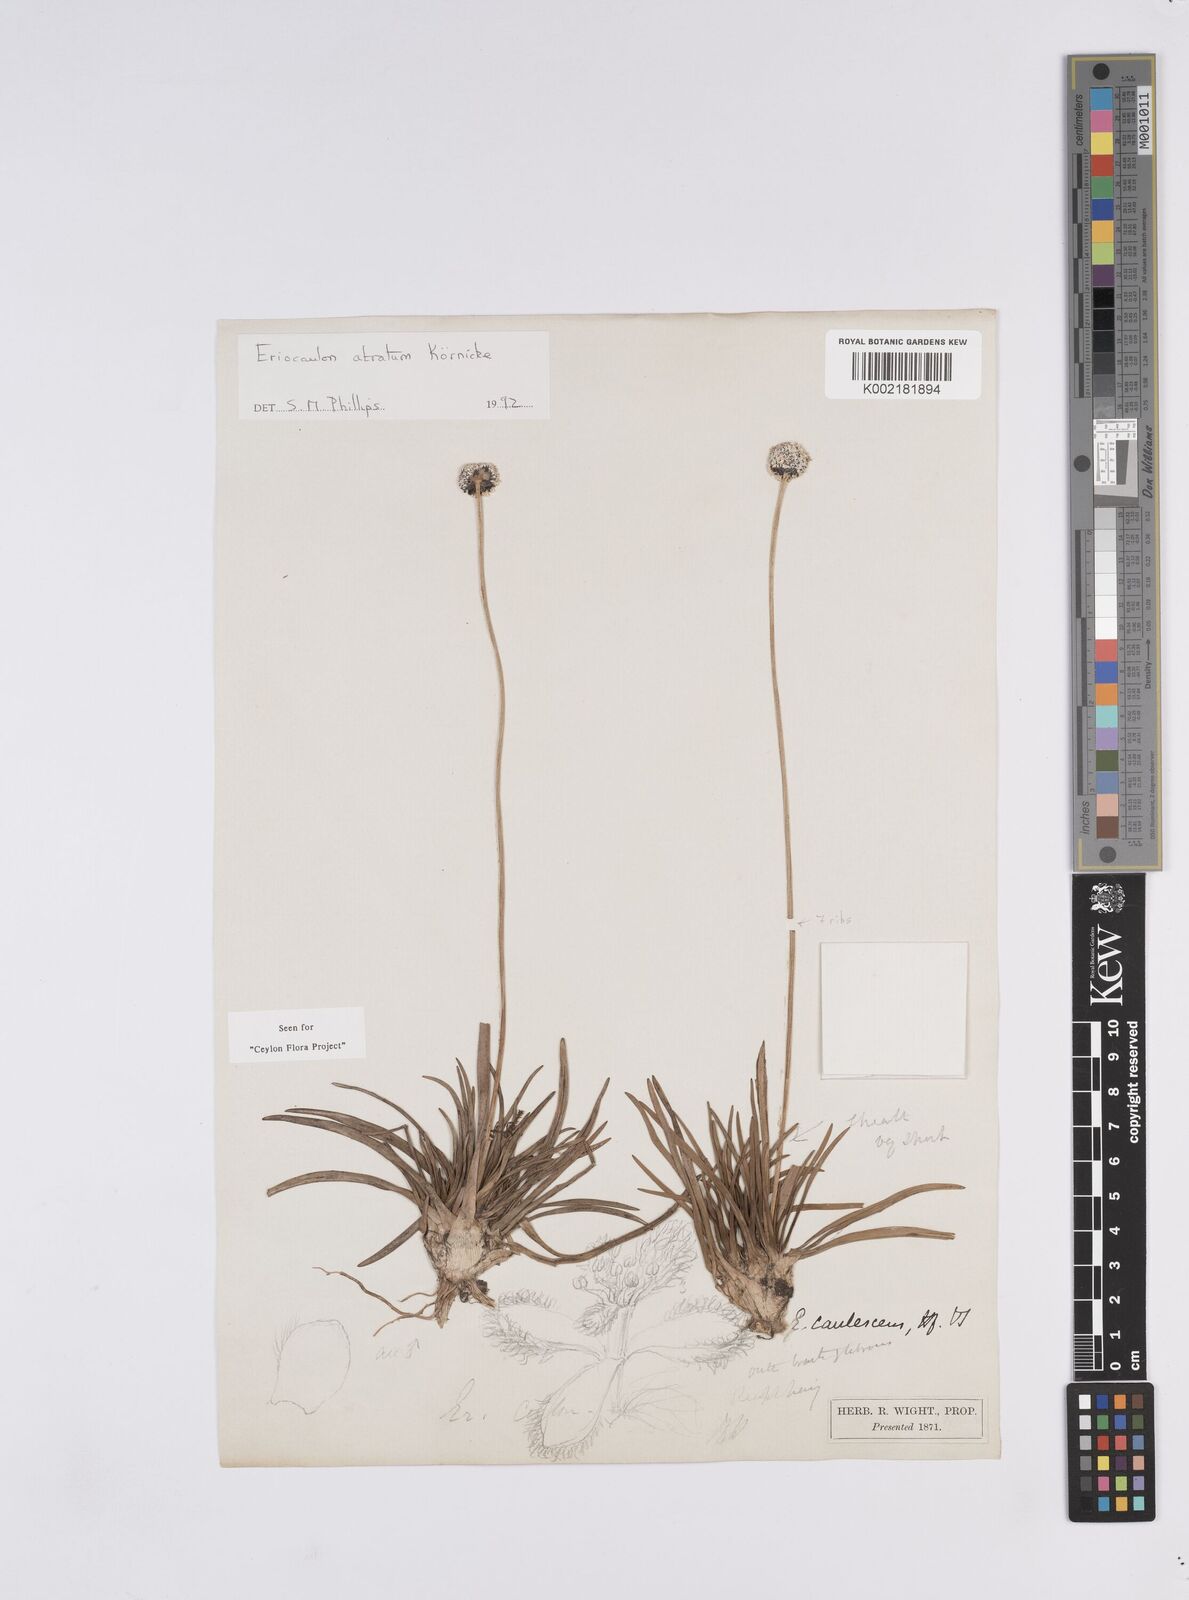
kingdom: Plantae
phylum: Tracheophyta
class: Liliopsida
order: Poales
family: Eriocaulaceae
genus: Eriocaulon
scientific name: Eriocaulon philippo-coburgii
